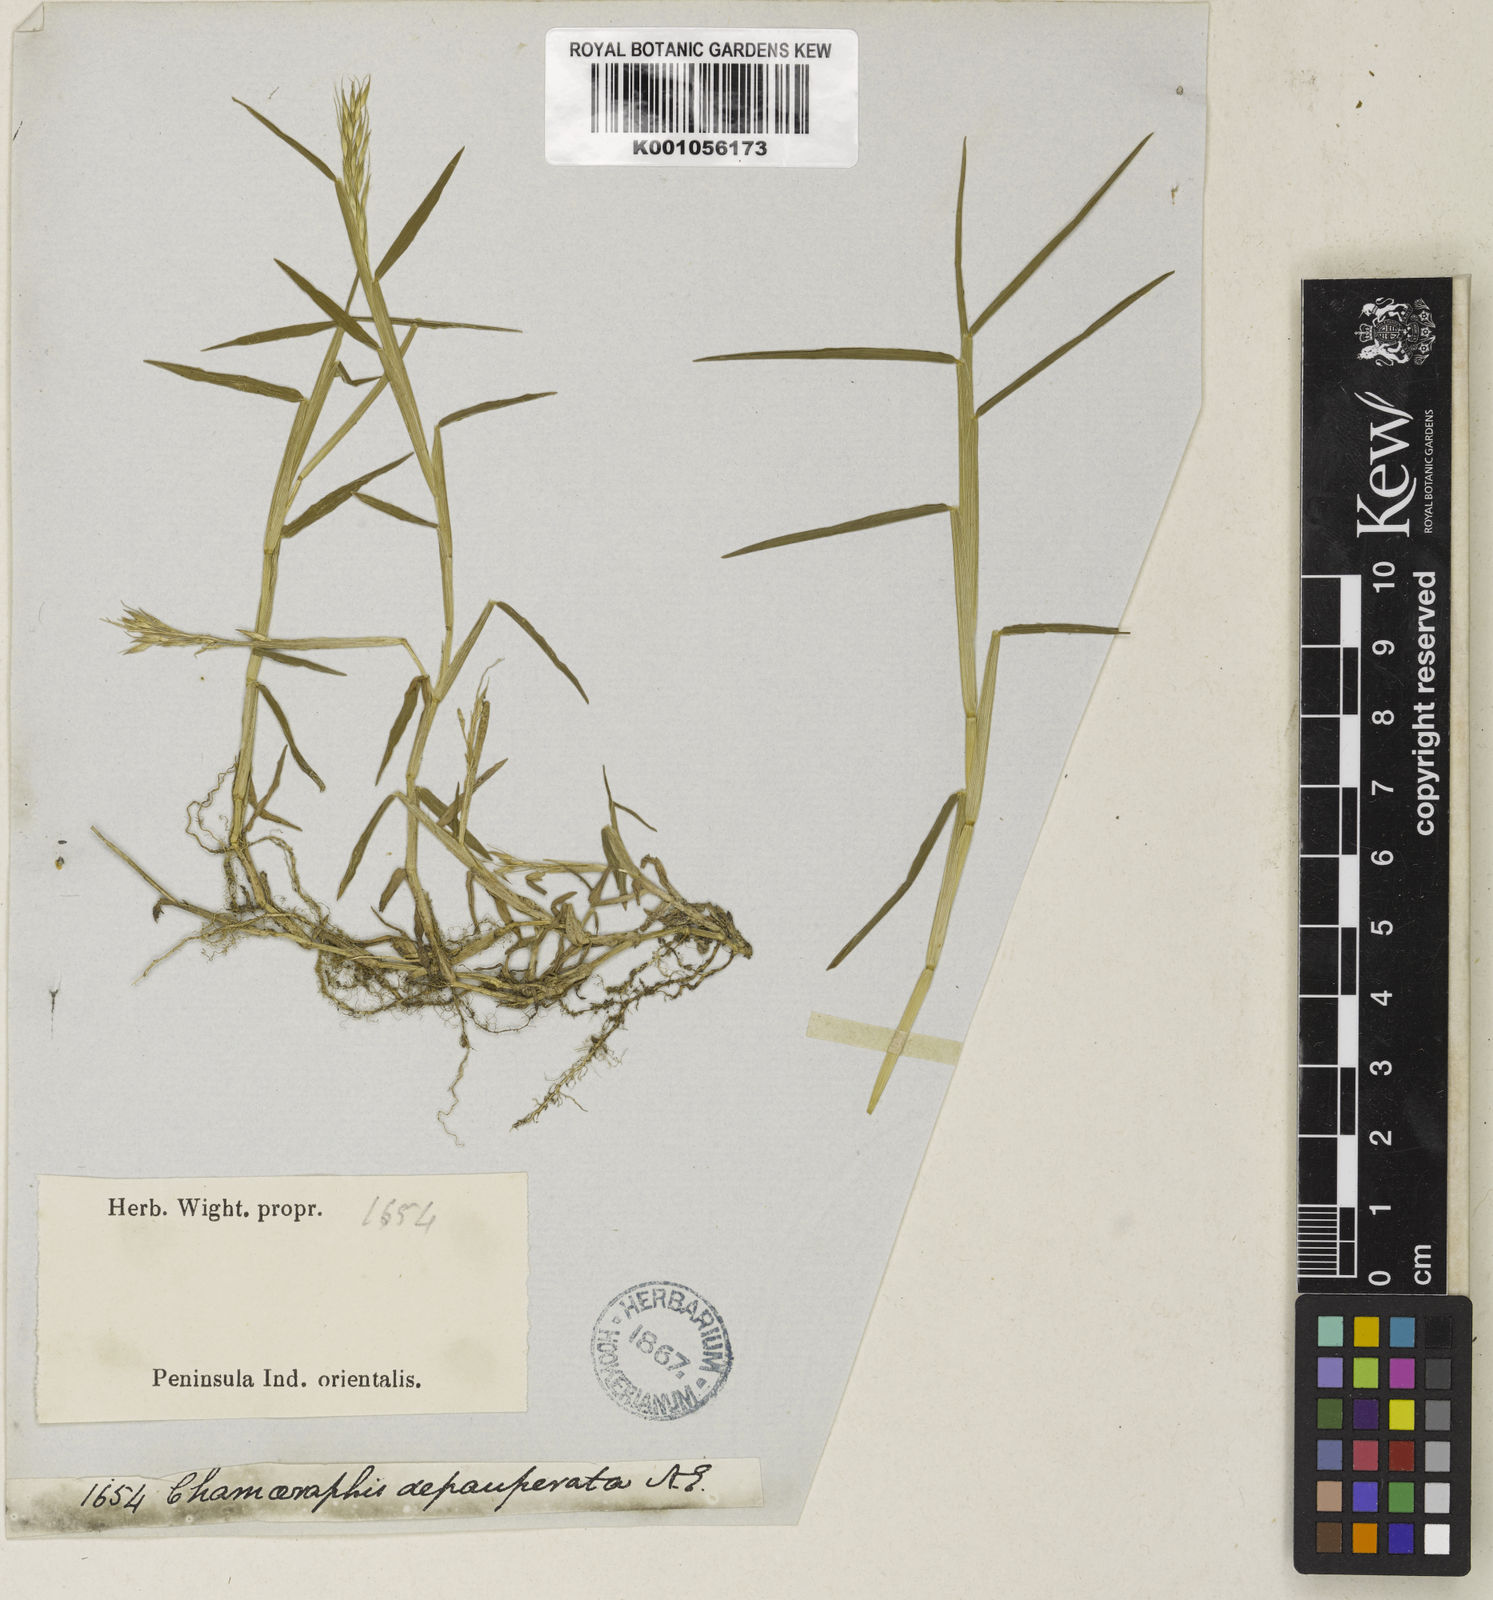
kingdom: Plantae
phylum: Tracheophyta
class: Liliopsida
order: Poales
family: Poaceae
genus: Pseudoraphis
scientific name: Pseudoraphis sordida
